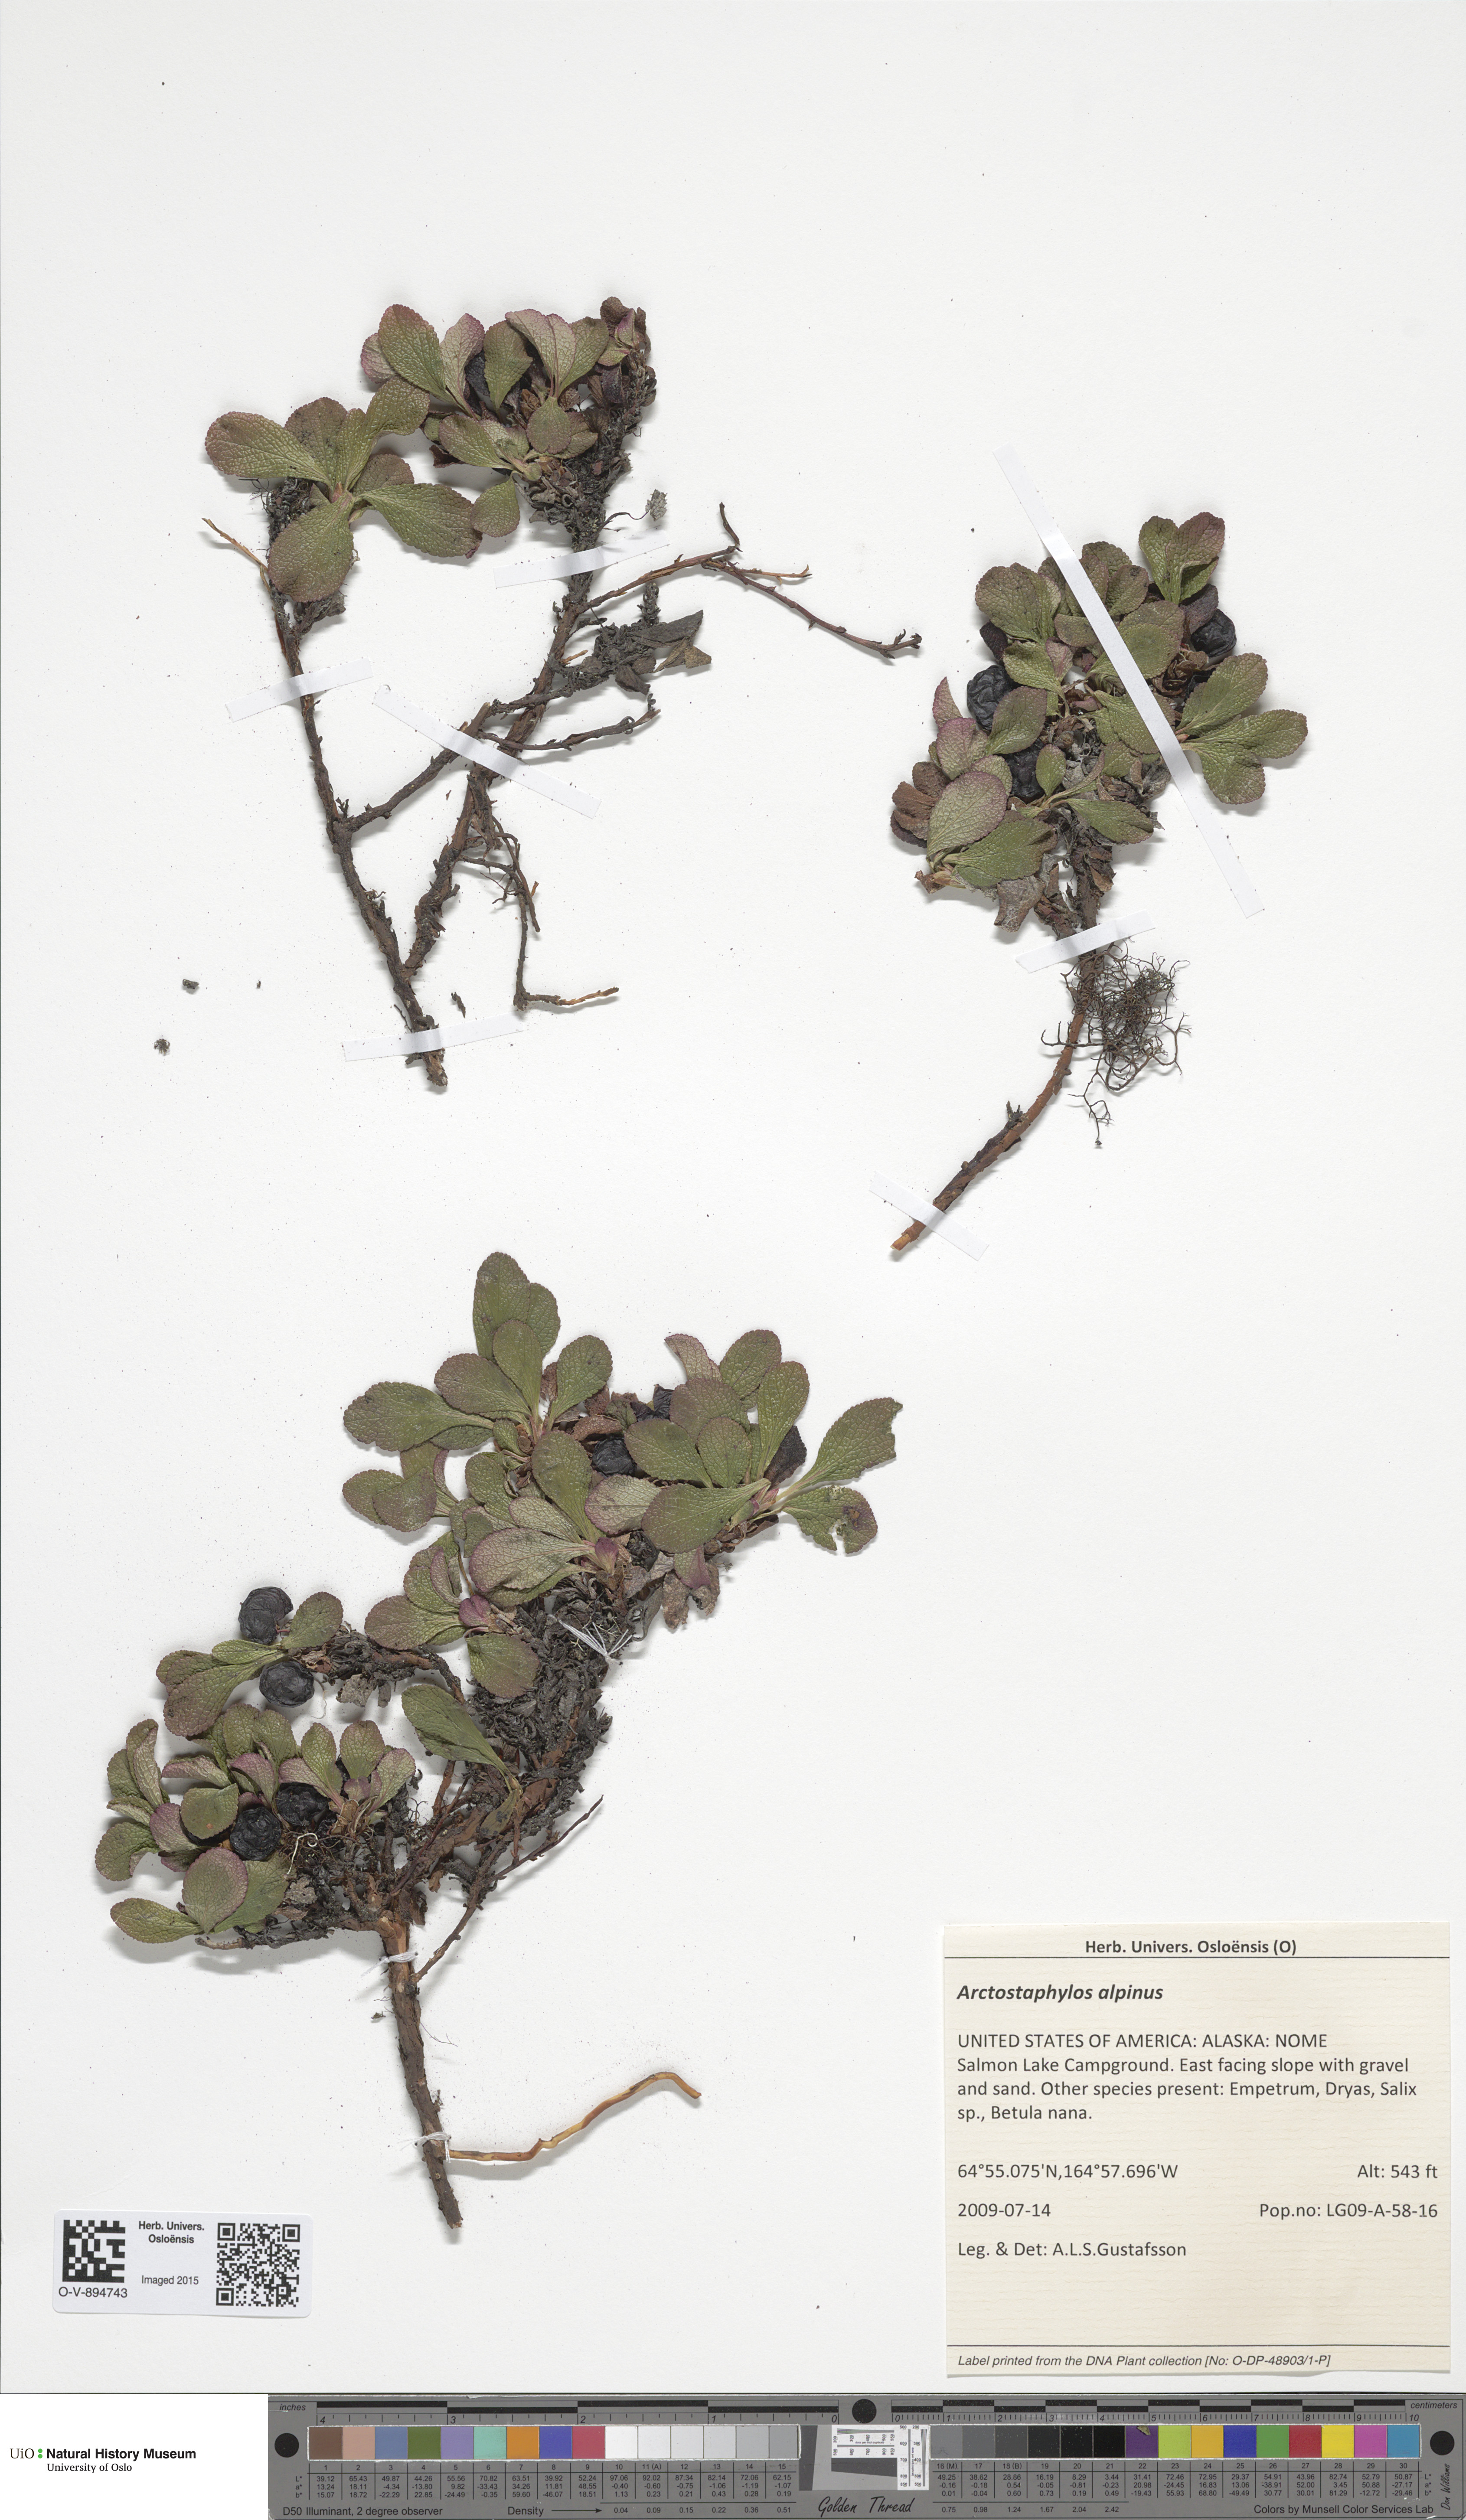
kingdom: Plantae
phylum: Tracheophyta
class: Magnoliopsida
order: Ericales
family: Ericaceae
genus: Arctostaphylos
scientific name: Arctostaphylos alpinus
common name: Alpine bearberry
